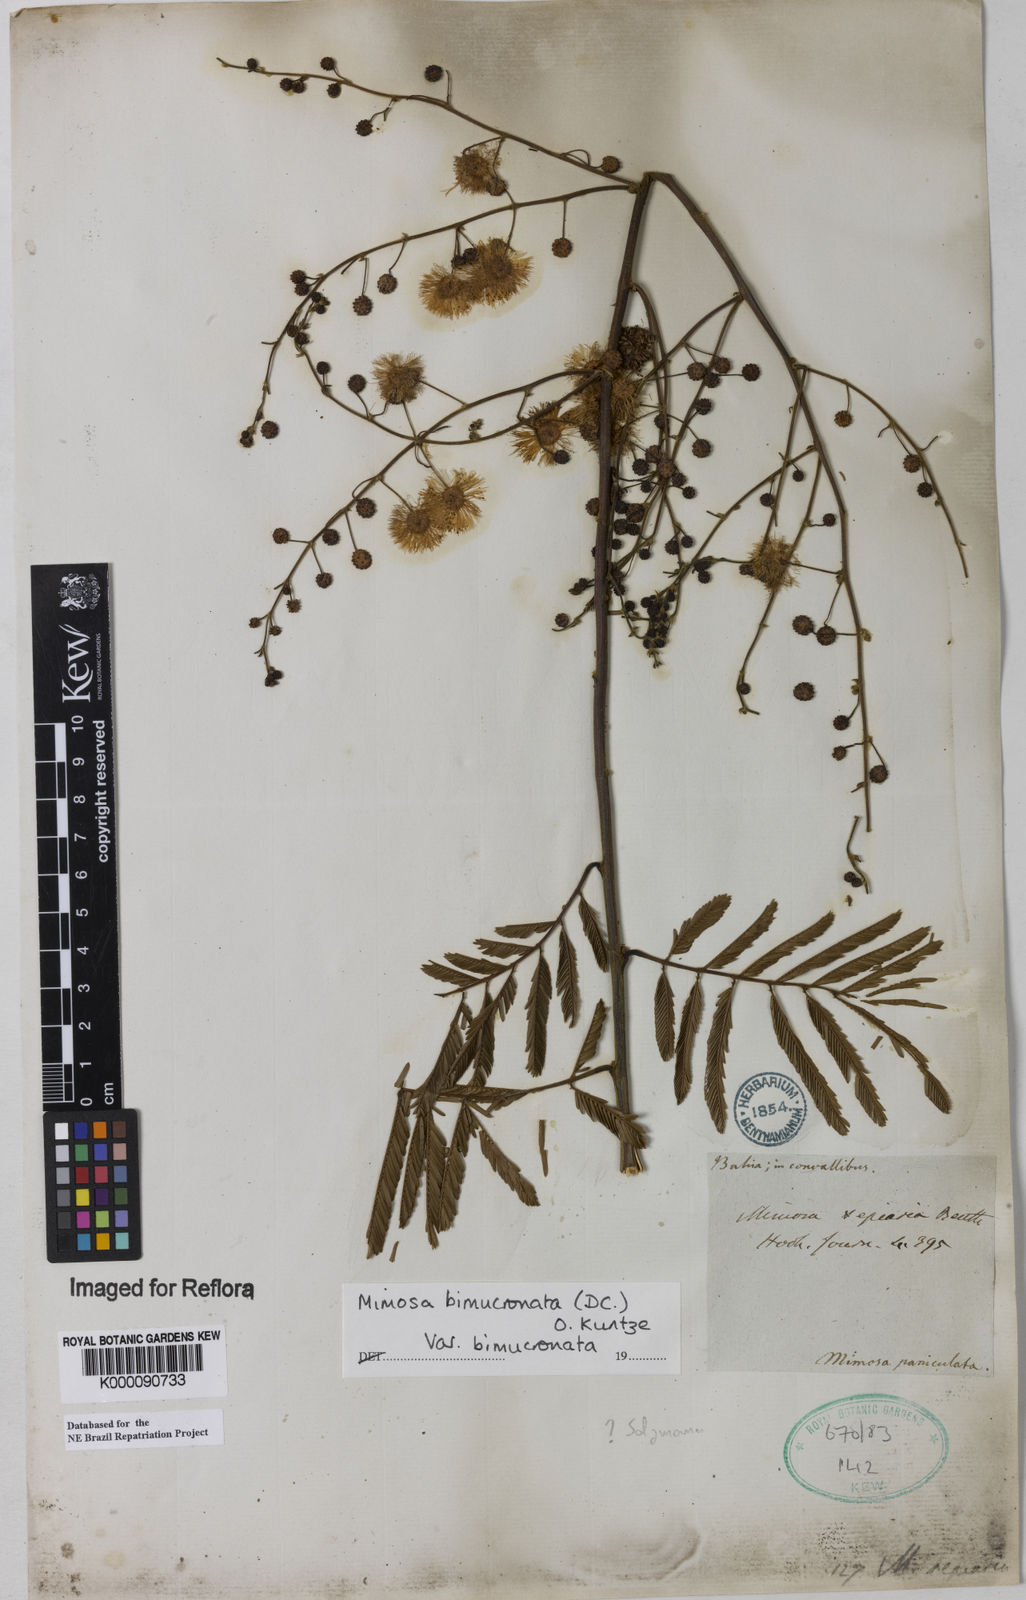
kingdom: Plantae
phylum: Tracheophyta
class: Magnoliopsida
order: Fabales
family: Fabaceae
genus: Mimosa
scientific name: Mimosa bimucronata
